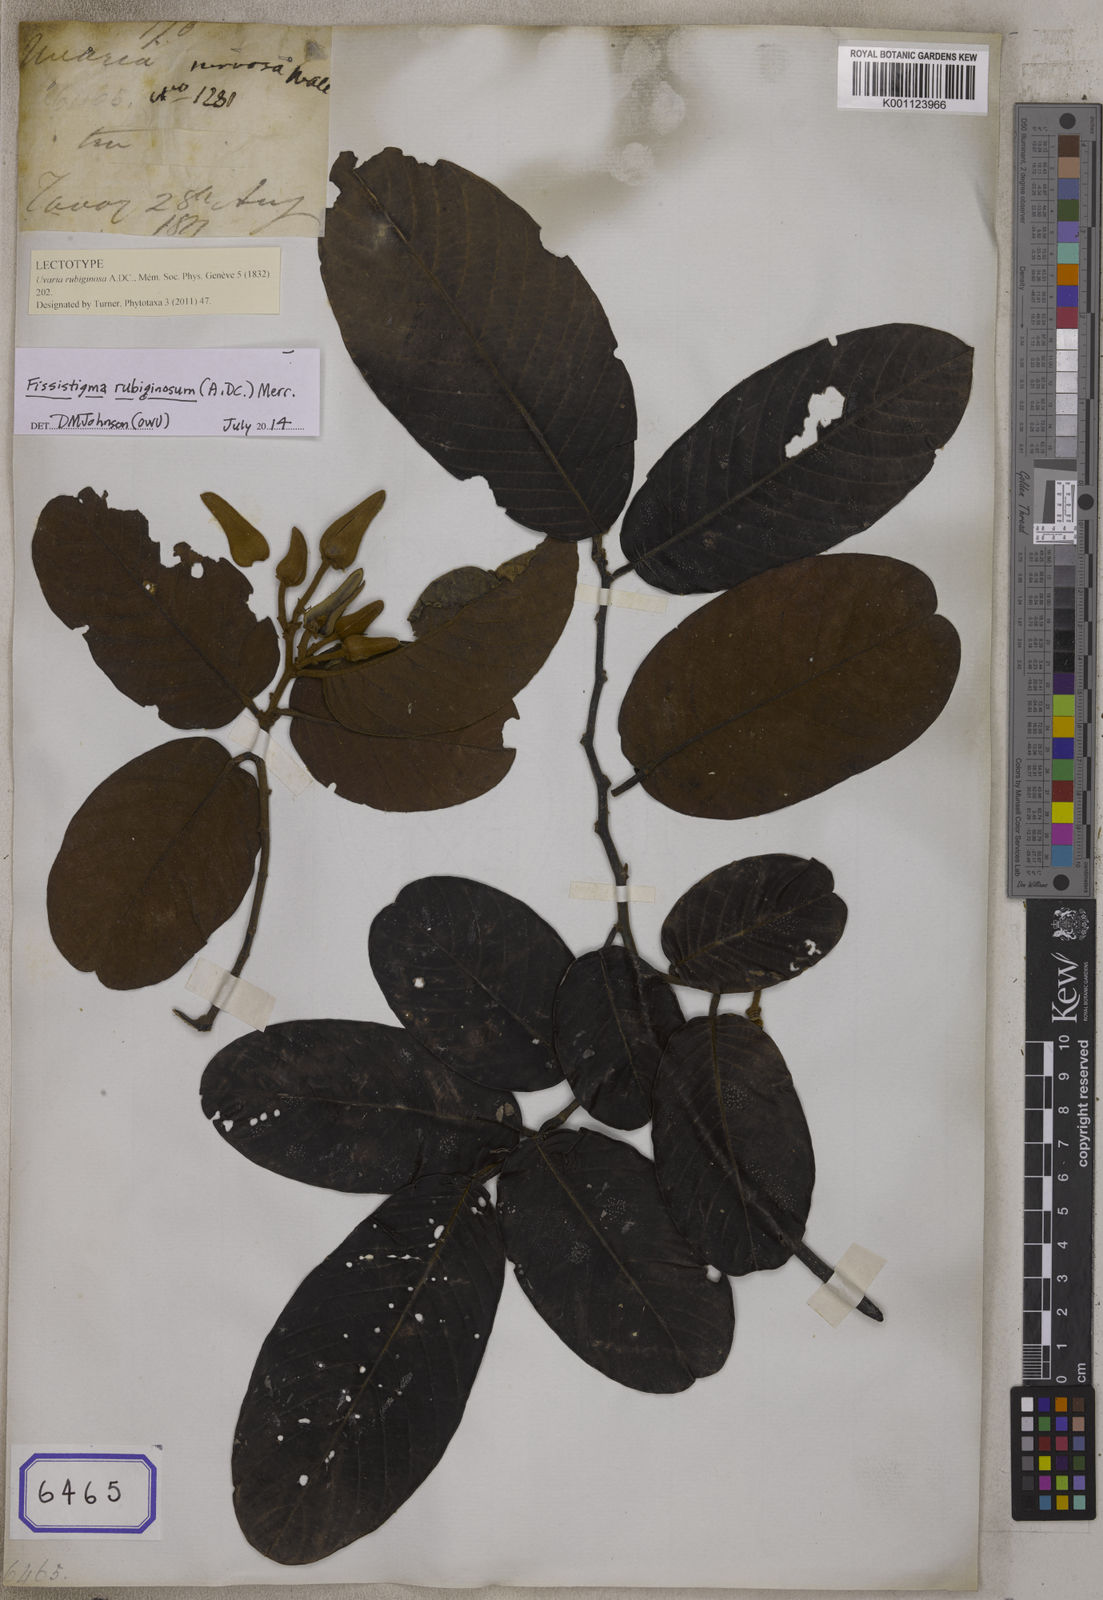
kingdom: Plantae
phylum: Tracheophyta
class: Magnoliopsida
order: Magnoliales
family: Annonaceae
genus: Fissistigma
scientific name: Fissistigma rubiginosum
